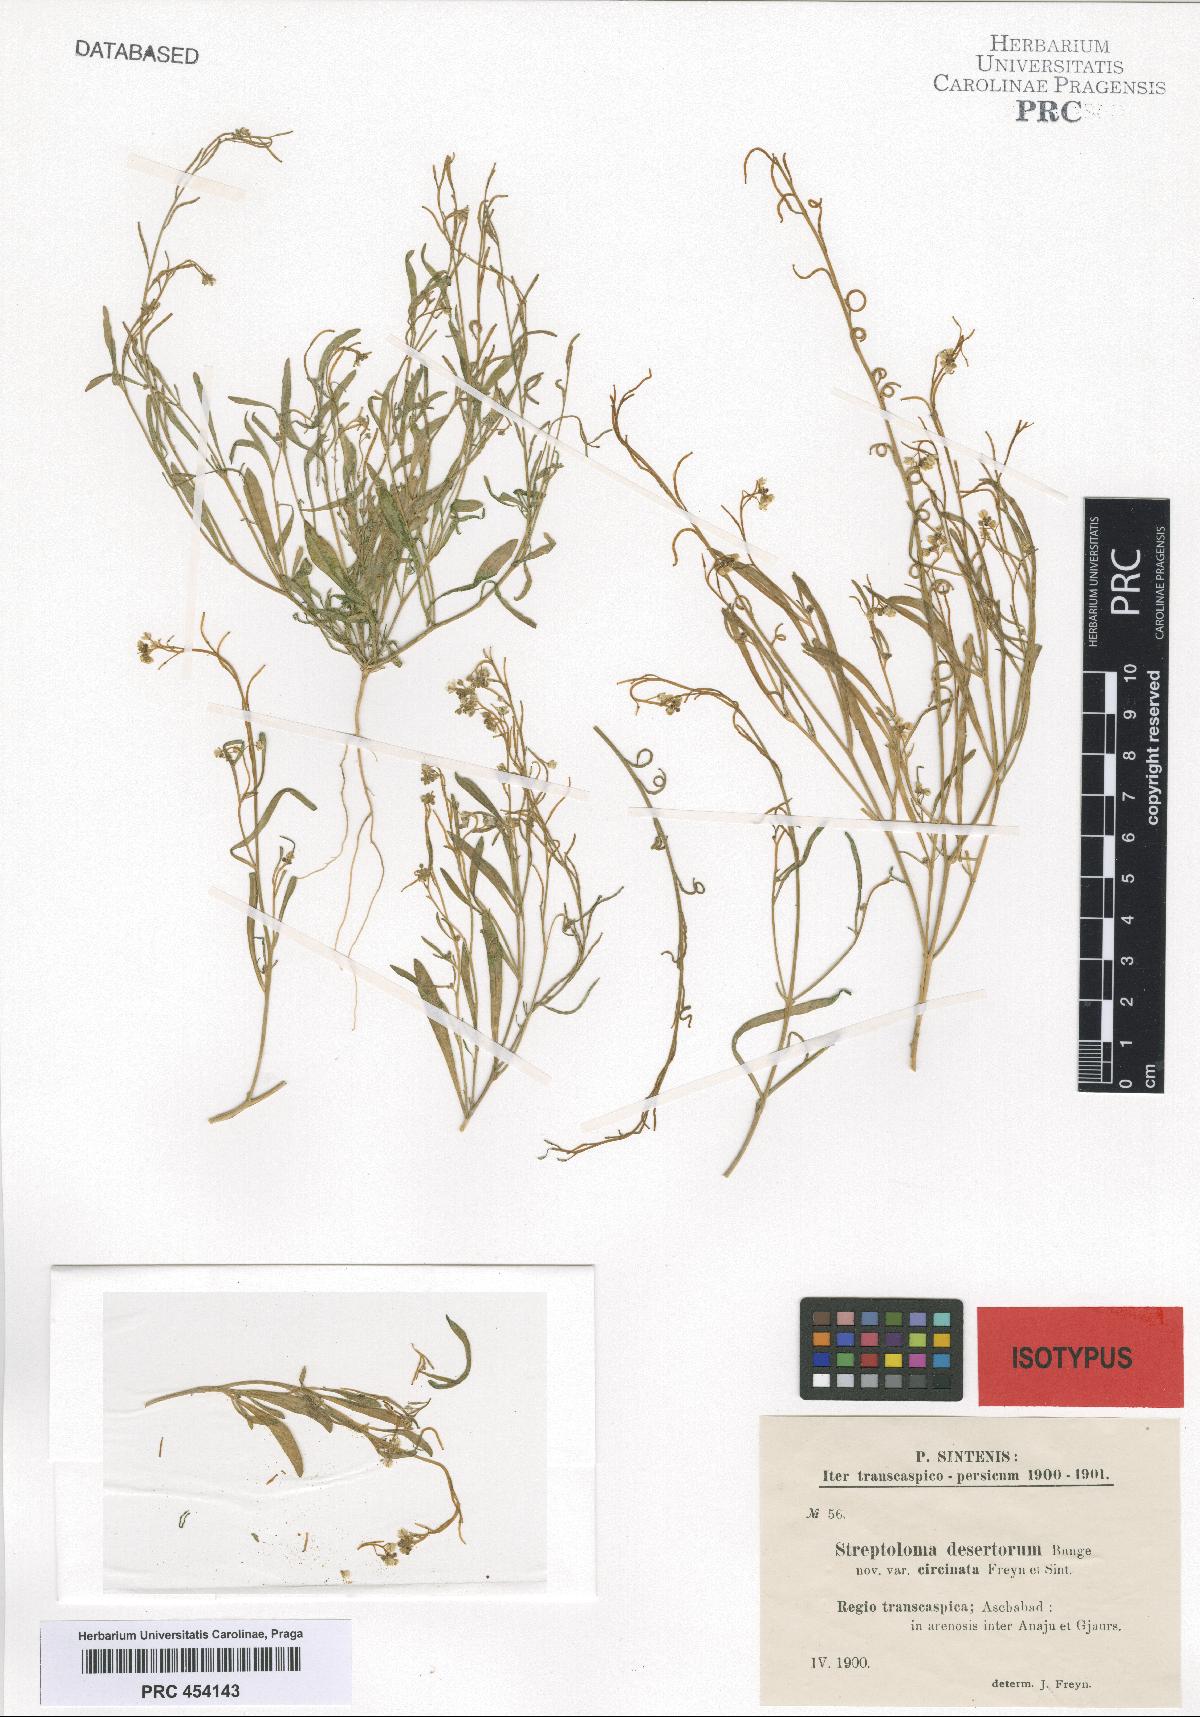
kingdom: Plantae
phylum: Tracheophyta
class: Magnoliopsida
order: Brassicales
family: Brassicaceae
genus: Streptoloma
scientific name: Streptoloma desertorum
